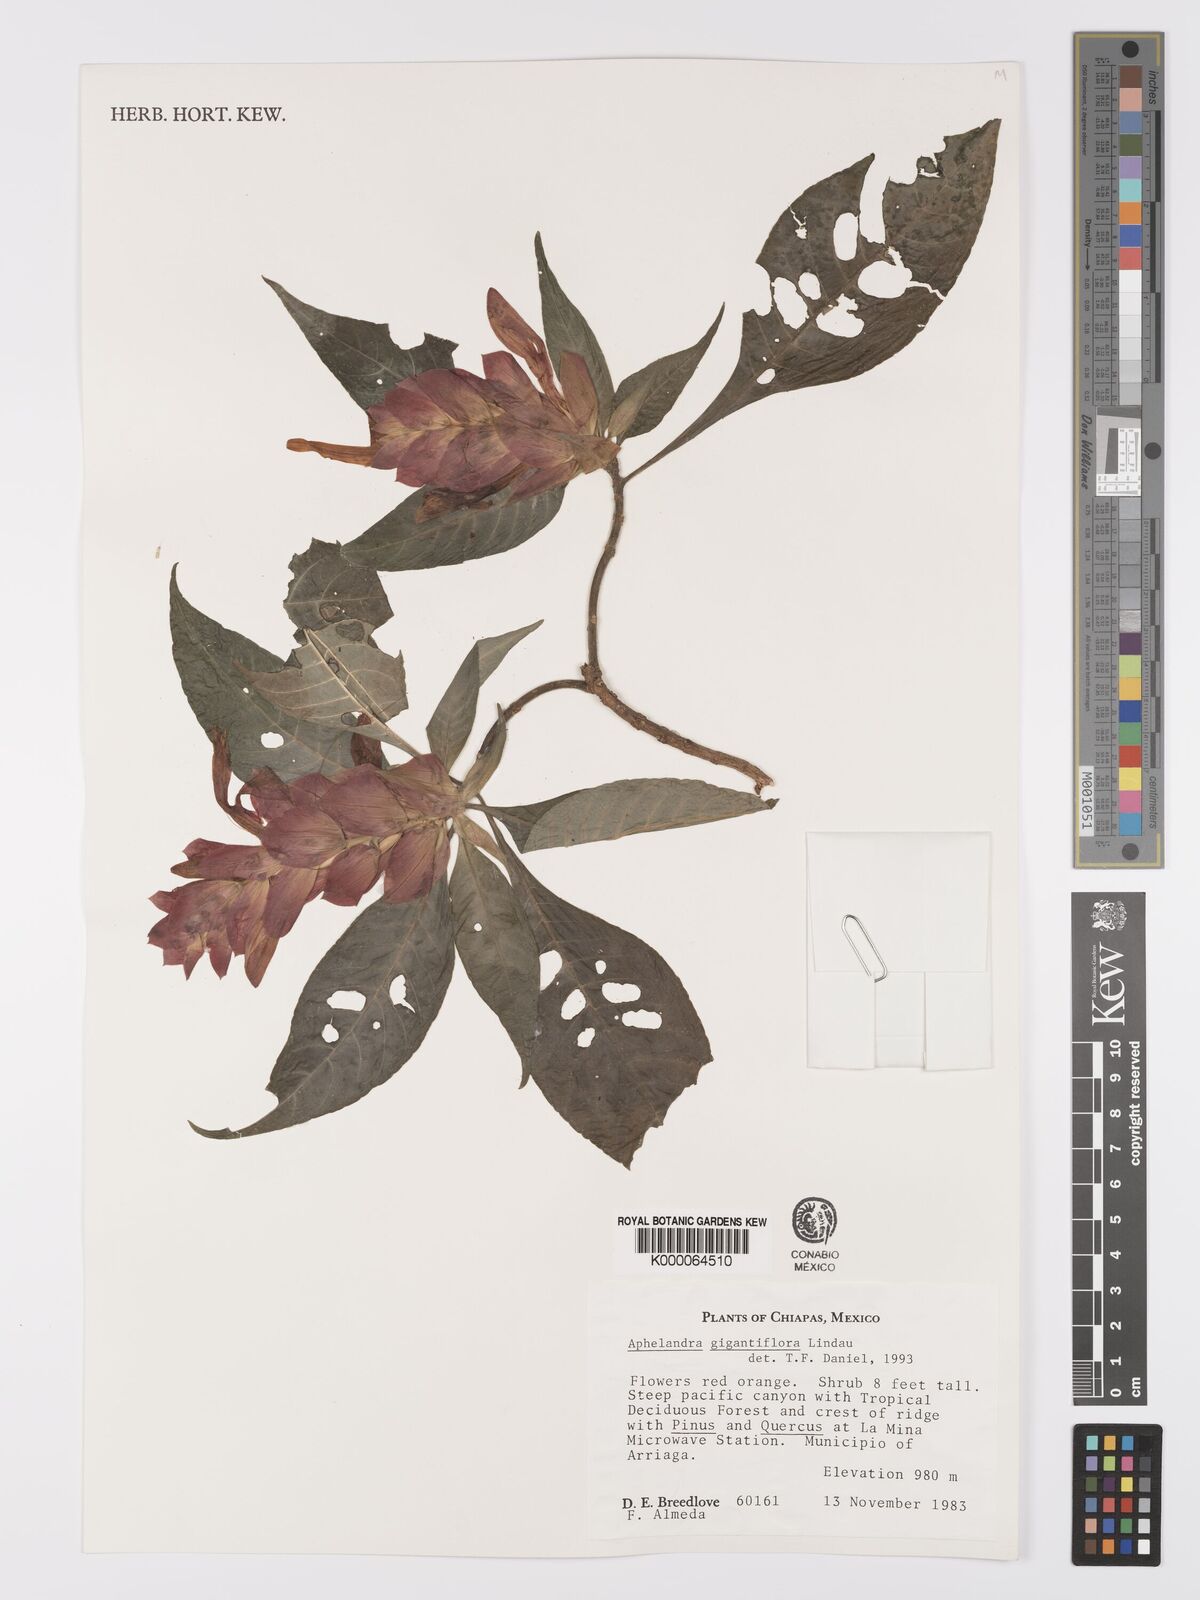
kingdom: Plantae
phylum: Tracheophyta
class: Magnoliopsida
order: Lamiales
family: Acanthaceae
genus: Aphelandra
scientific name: Aphelandra gigantiflora
